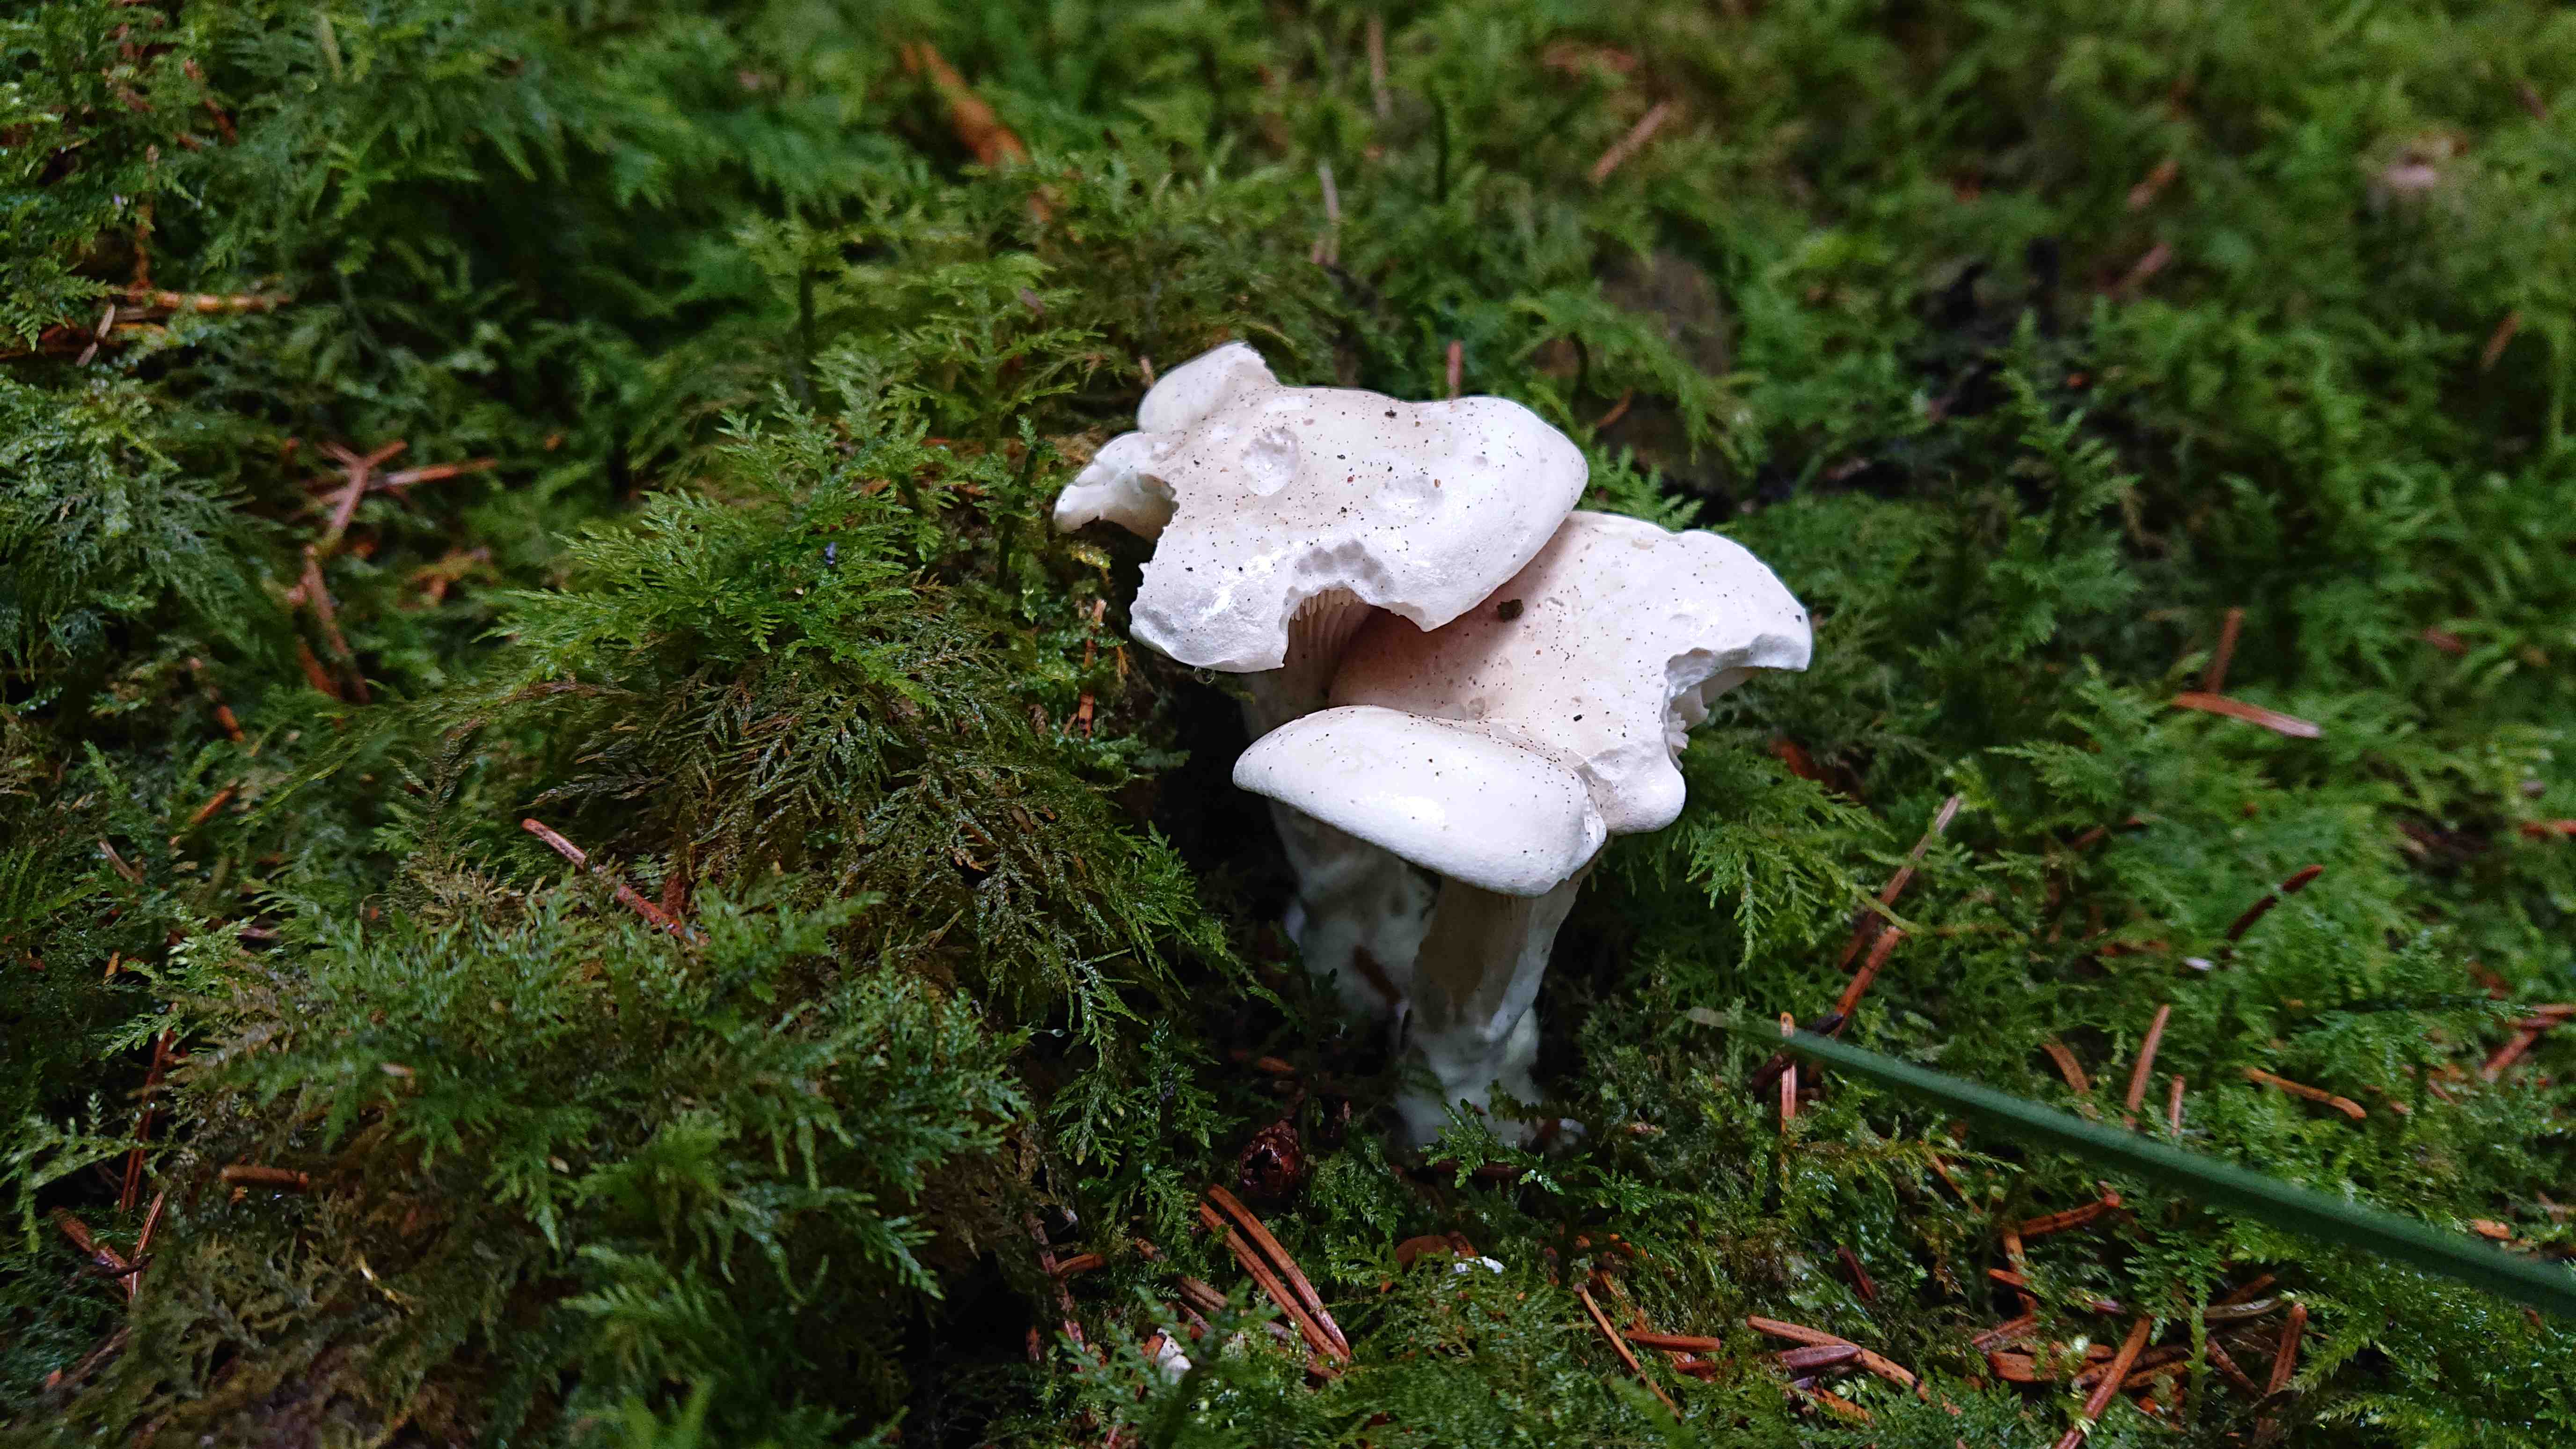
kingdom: Fungi
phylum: Basidiomycota
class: Agaricomycetes
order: Agaricales
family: Entolomataceae
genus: Clitopilus
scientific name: Clitopilus prunulus
